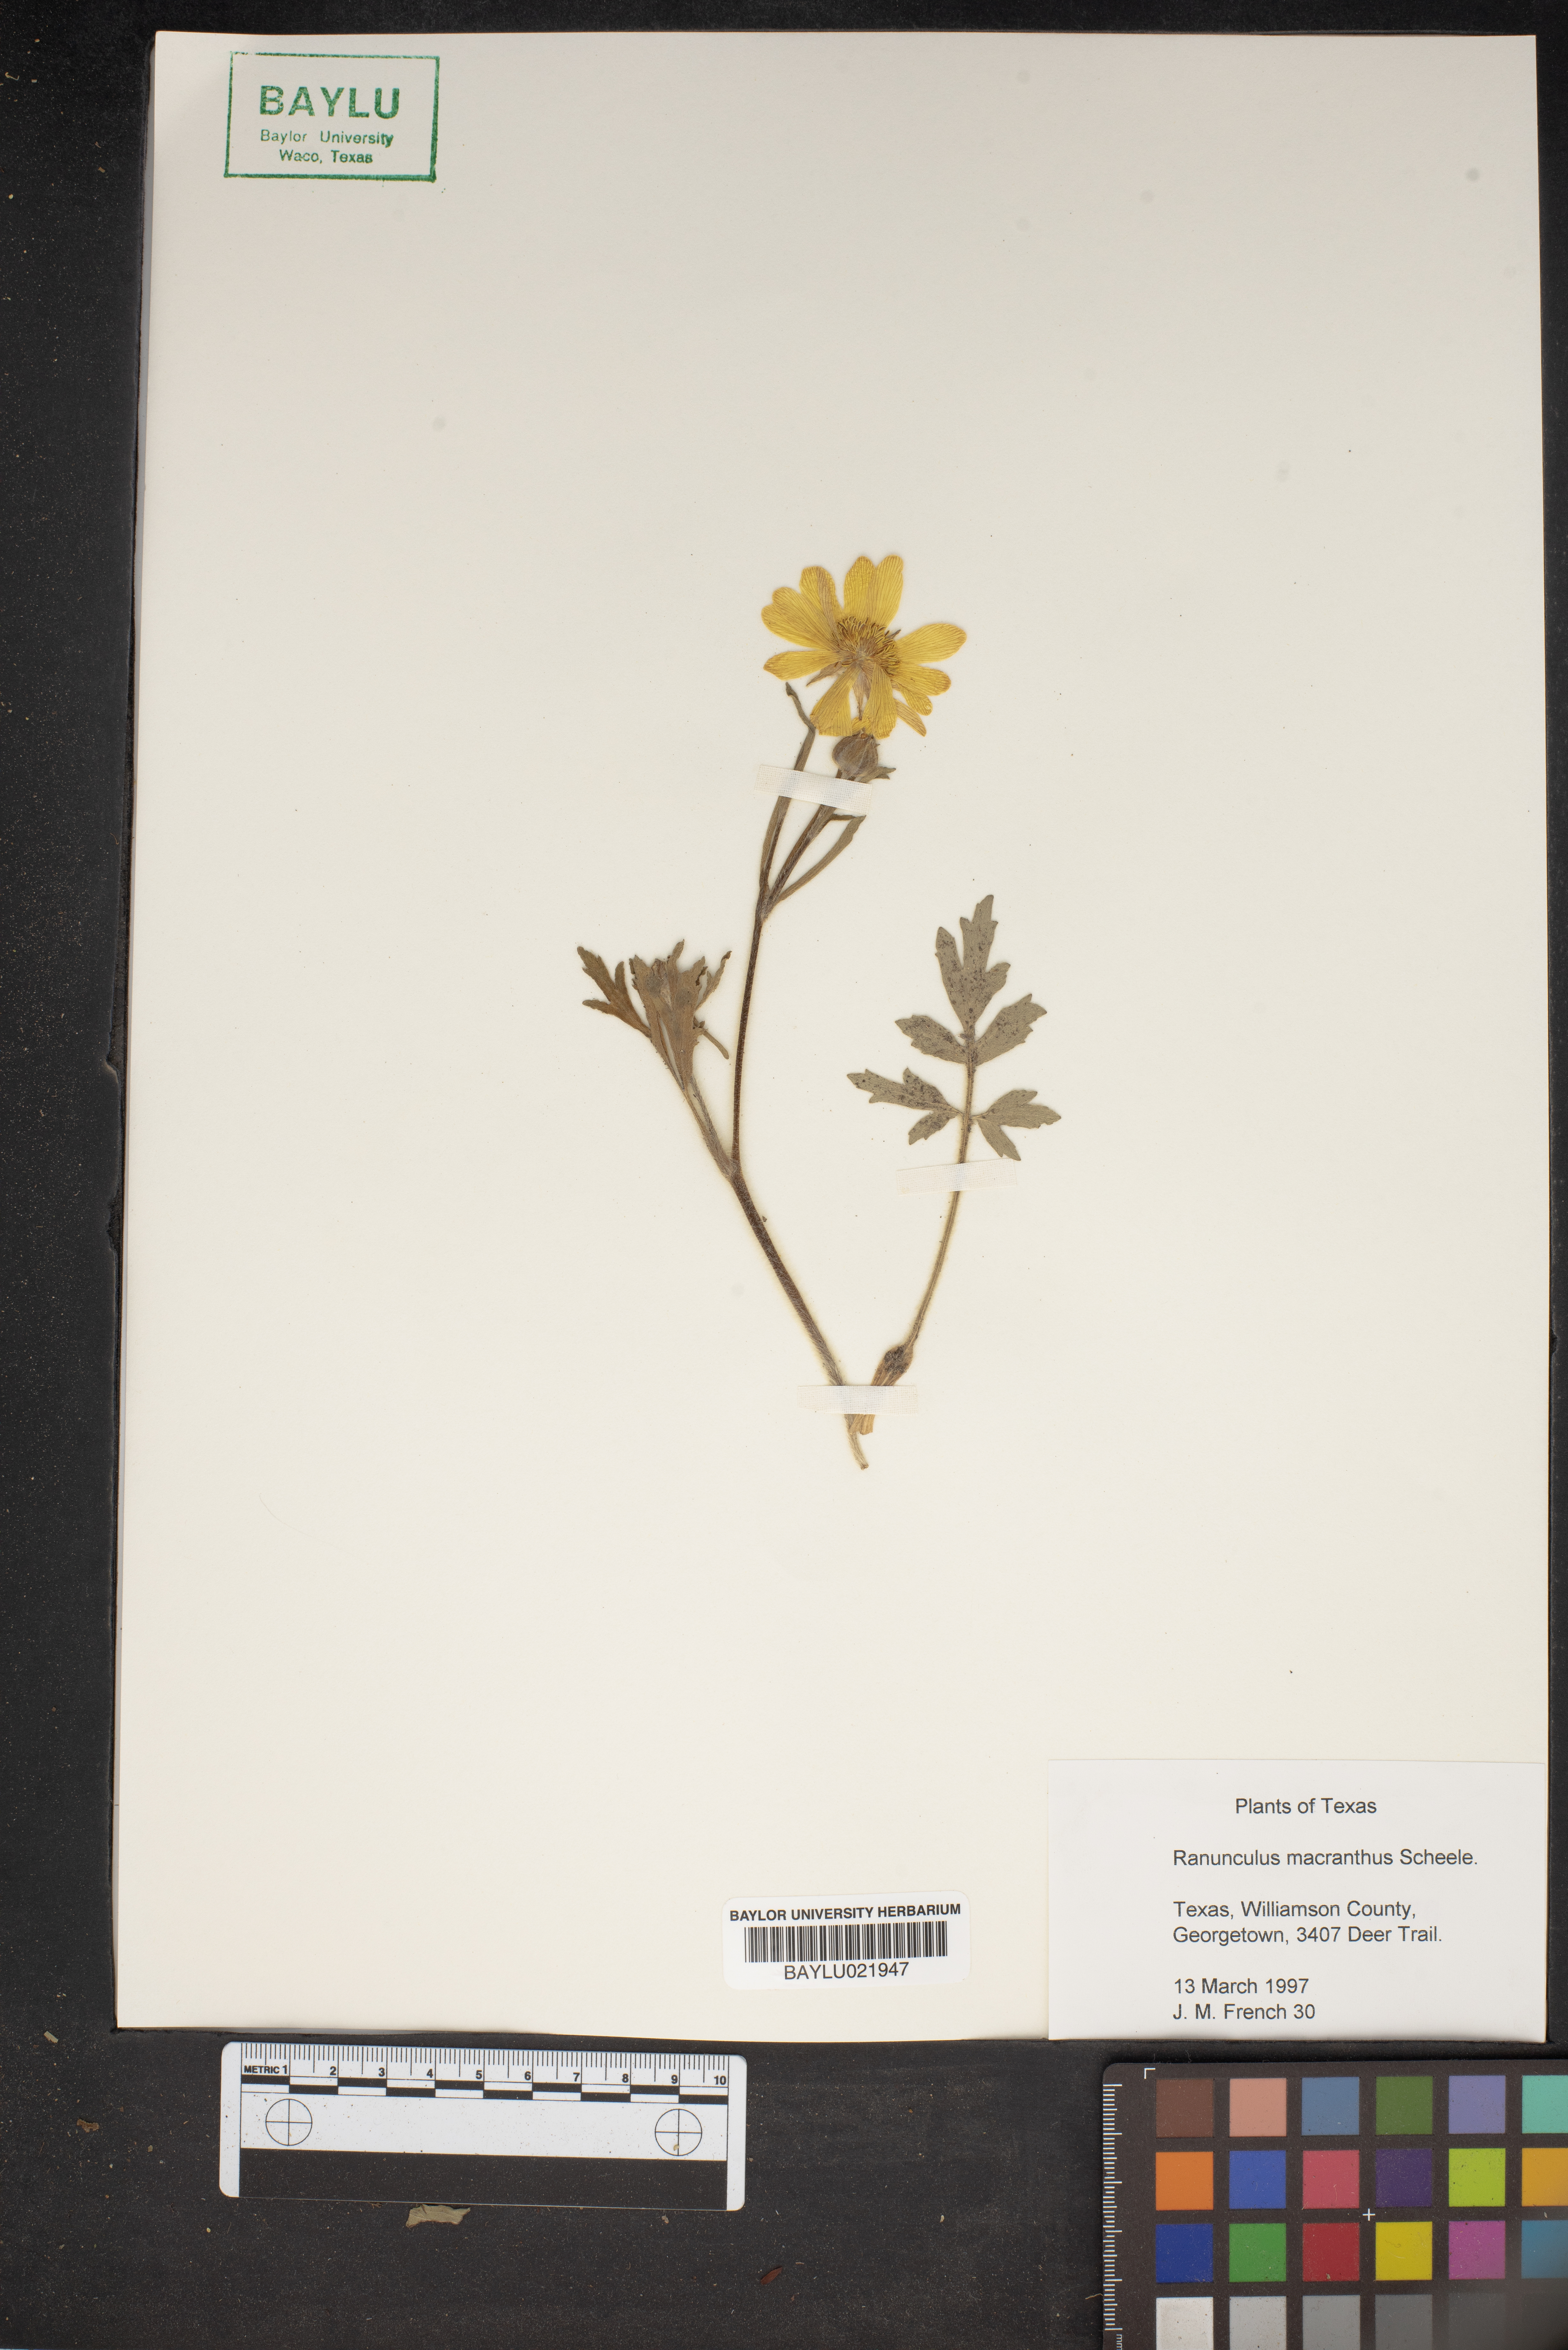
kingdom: Plantae
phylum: Tracheophyta
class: Magnoliopsida
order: Ranunculales
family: Ranunculaceae
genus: Ranunculus
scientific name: Ranunculus macranthus
